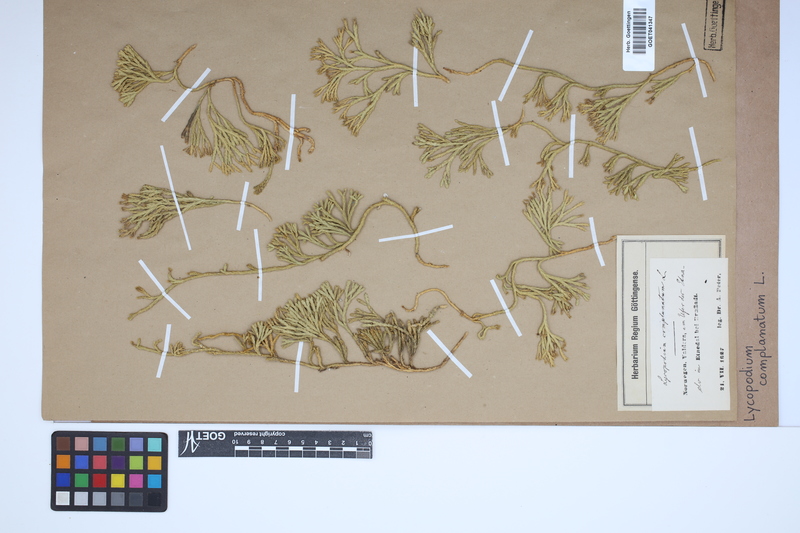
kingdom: Plantae
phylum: Tracheophyta
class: Lycopodiopsida
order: Lycopodiales
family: Lycopodiaceae
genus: Diphasiastrum
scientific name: Diphasiastrum complanatum
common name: Northern running-pine
